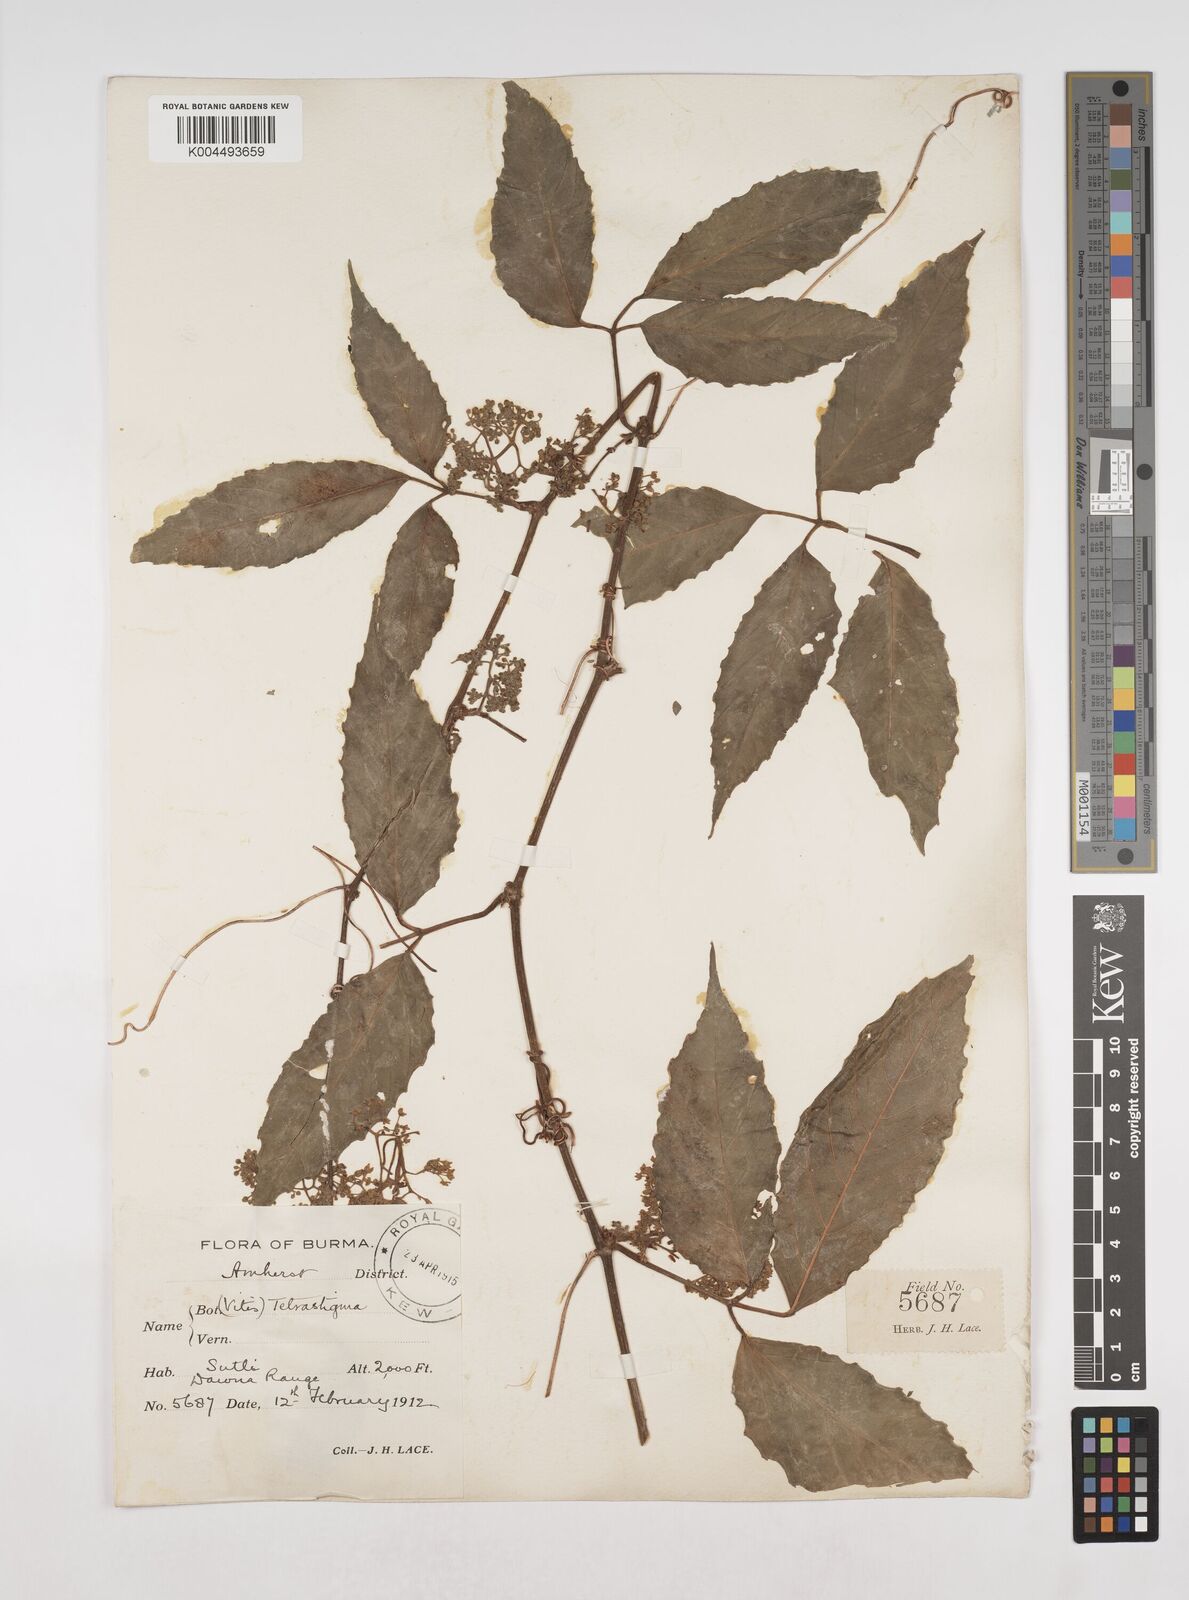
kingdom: Plantae
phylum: Tracheophyta
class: Magnoliopsida
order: Vitales
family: Vitaceae
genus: Tetrastigma
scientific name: Tetrastigma angustifolium
